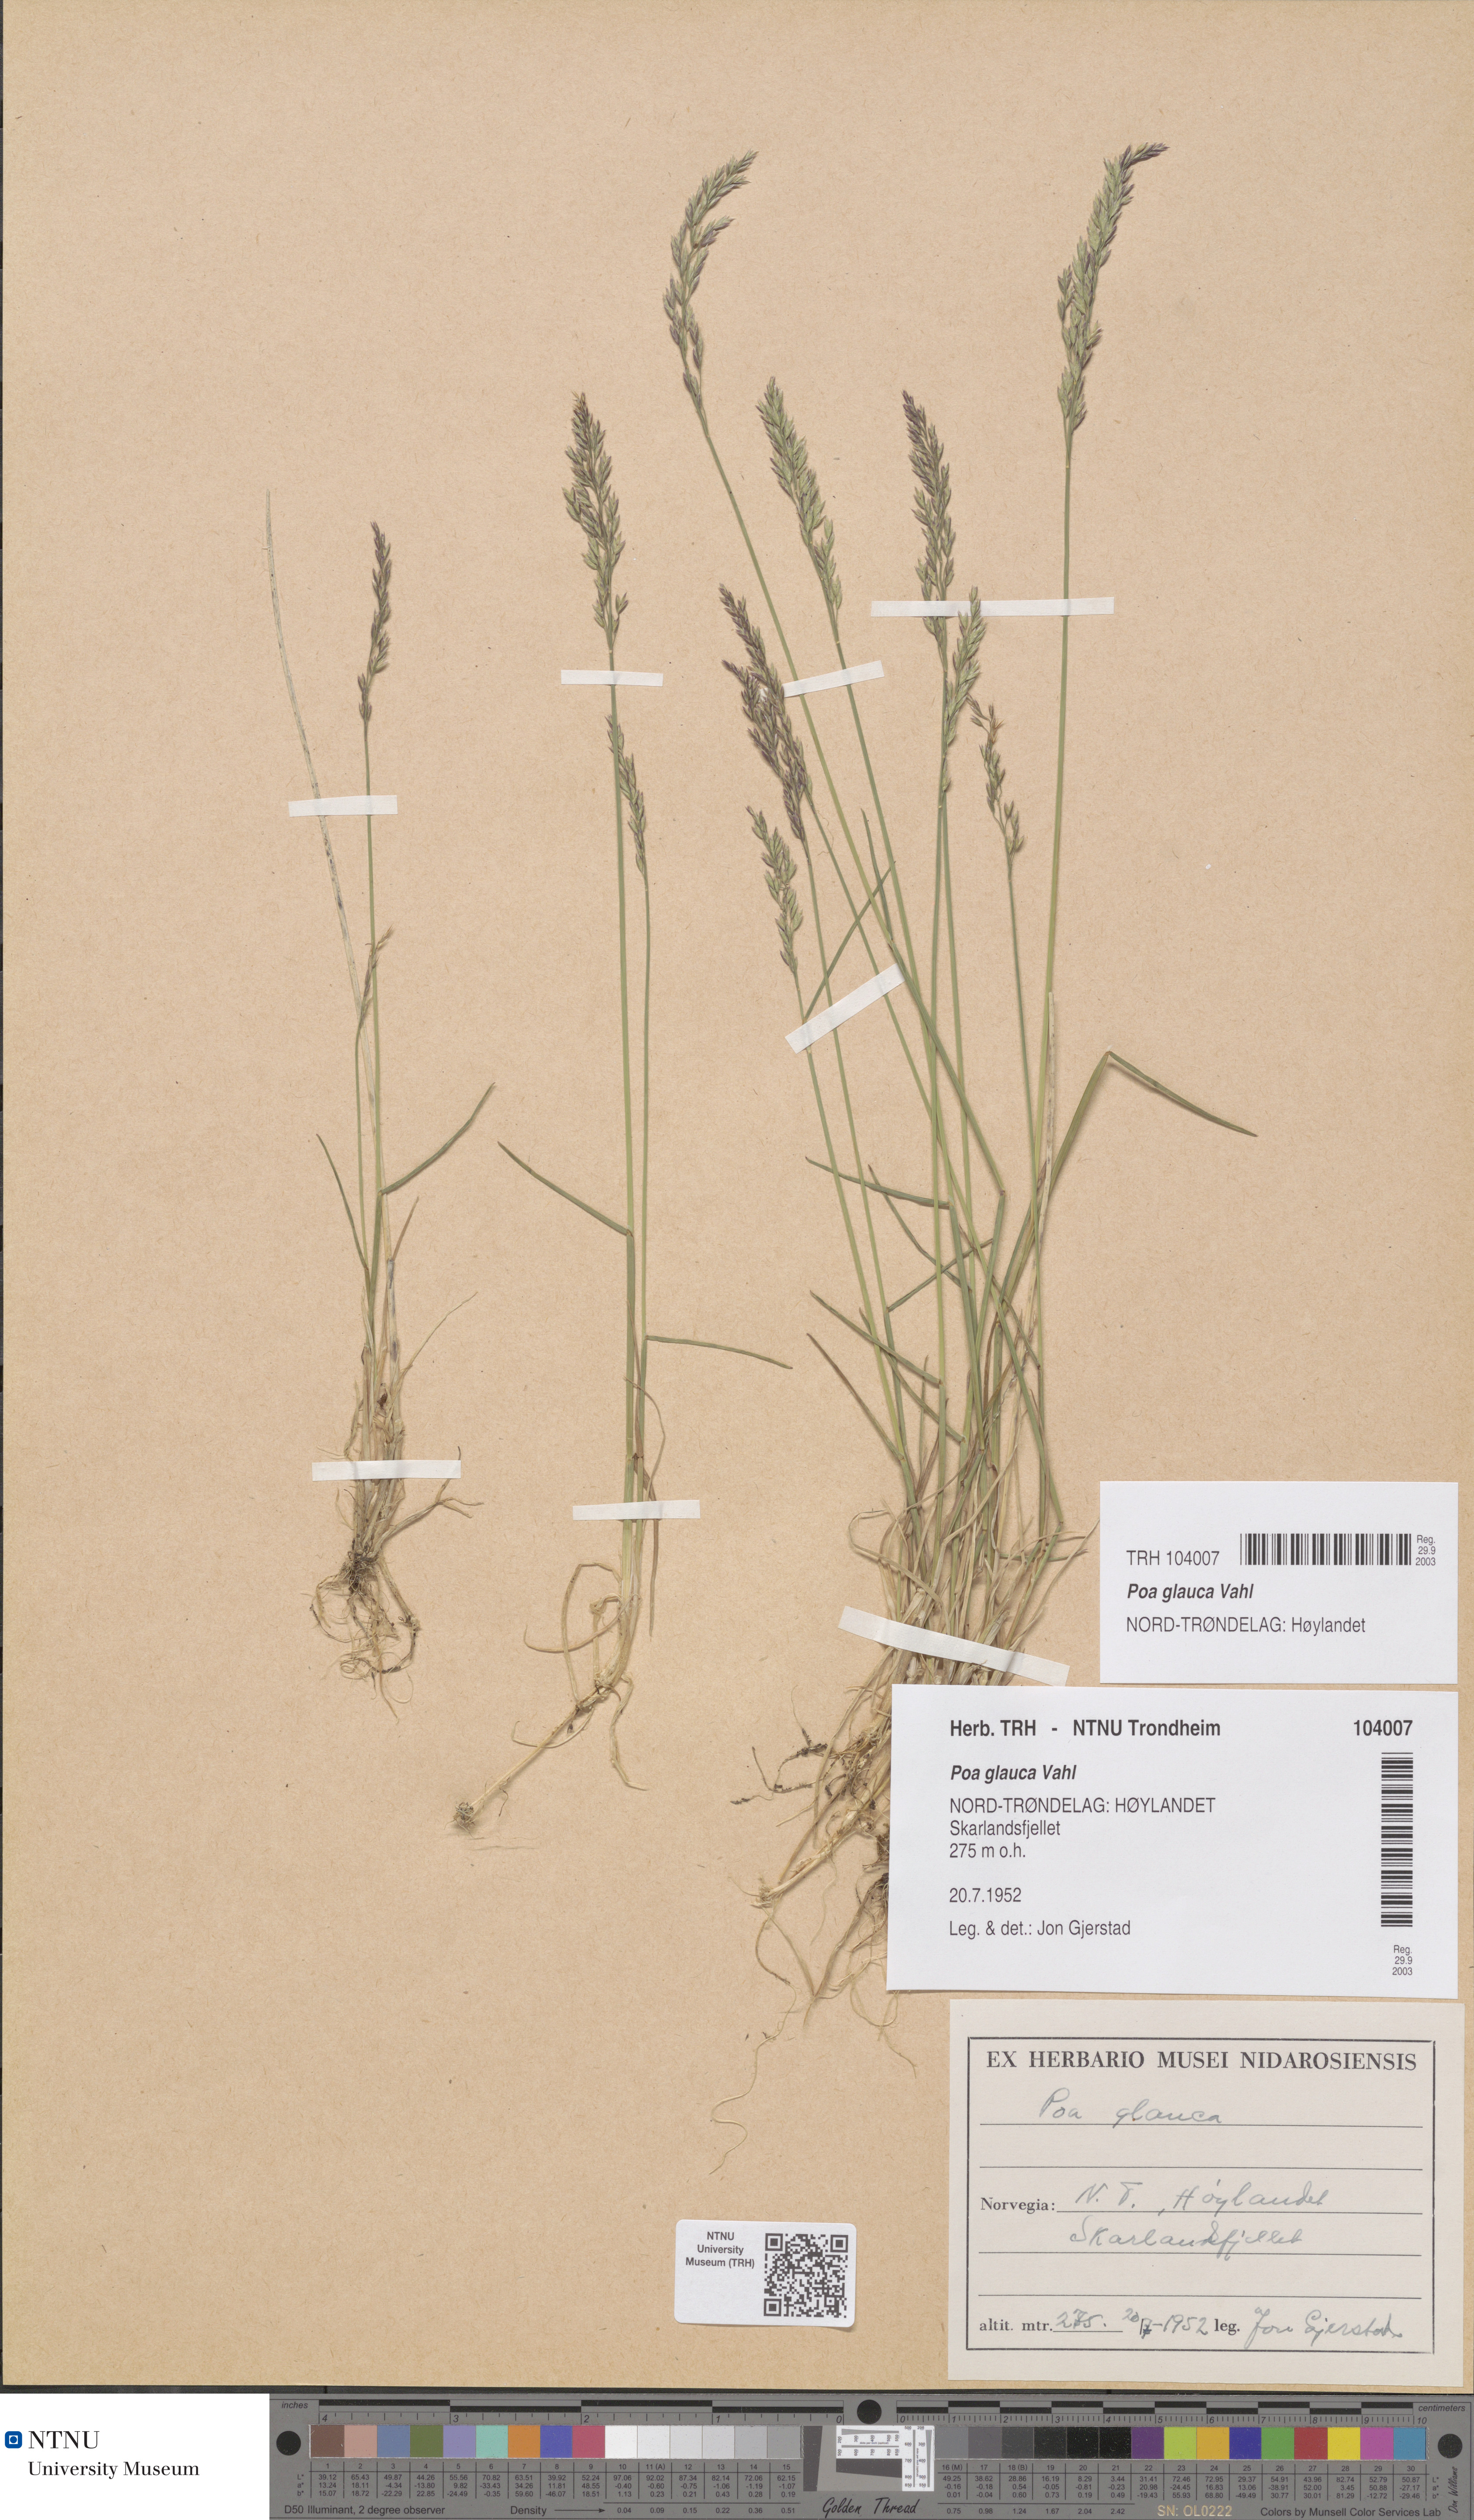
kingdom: Plantae
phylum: Tracheophyta
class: Liliopsida
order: Poales
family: Poaceae
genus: Poa
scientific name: Poa glauca
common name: Glaucous bluegrass
